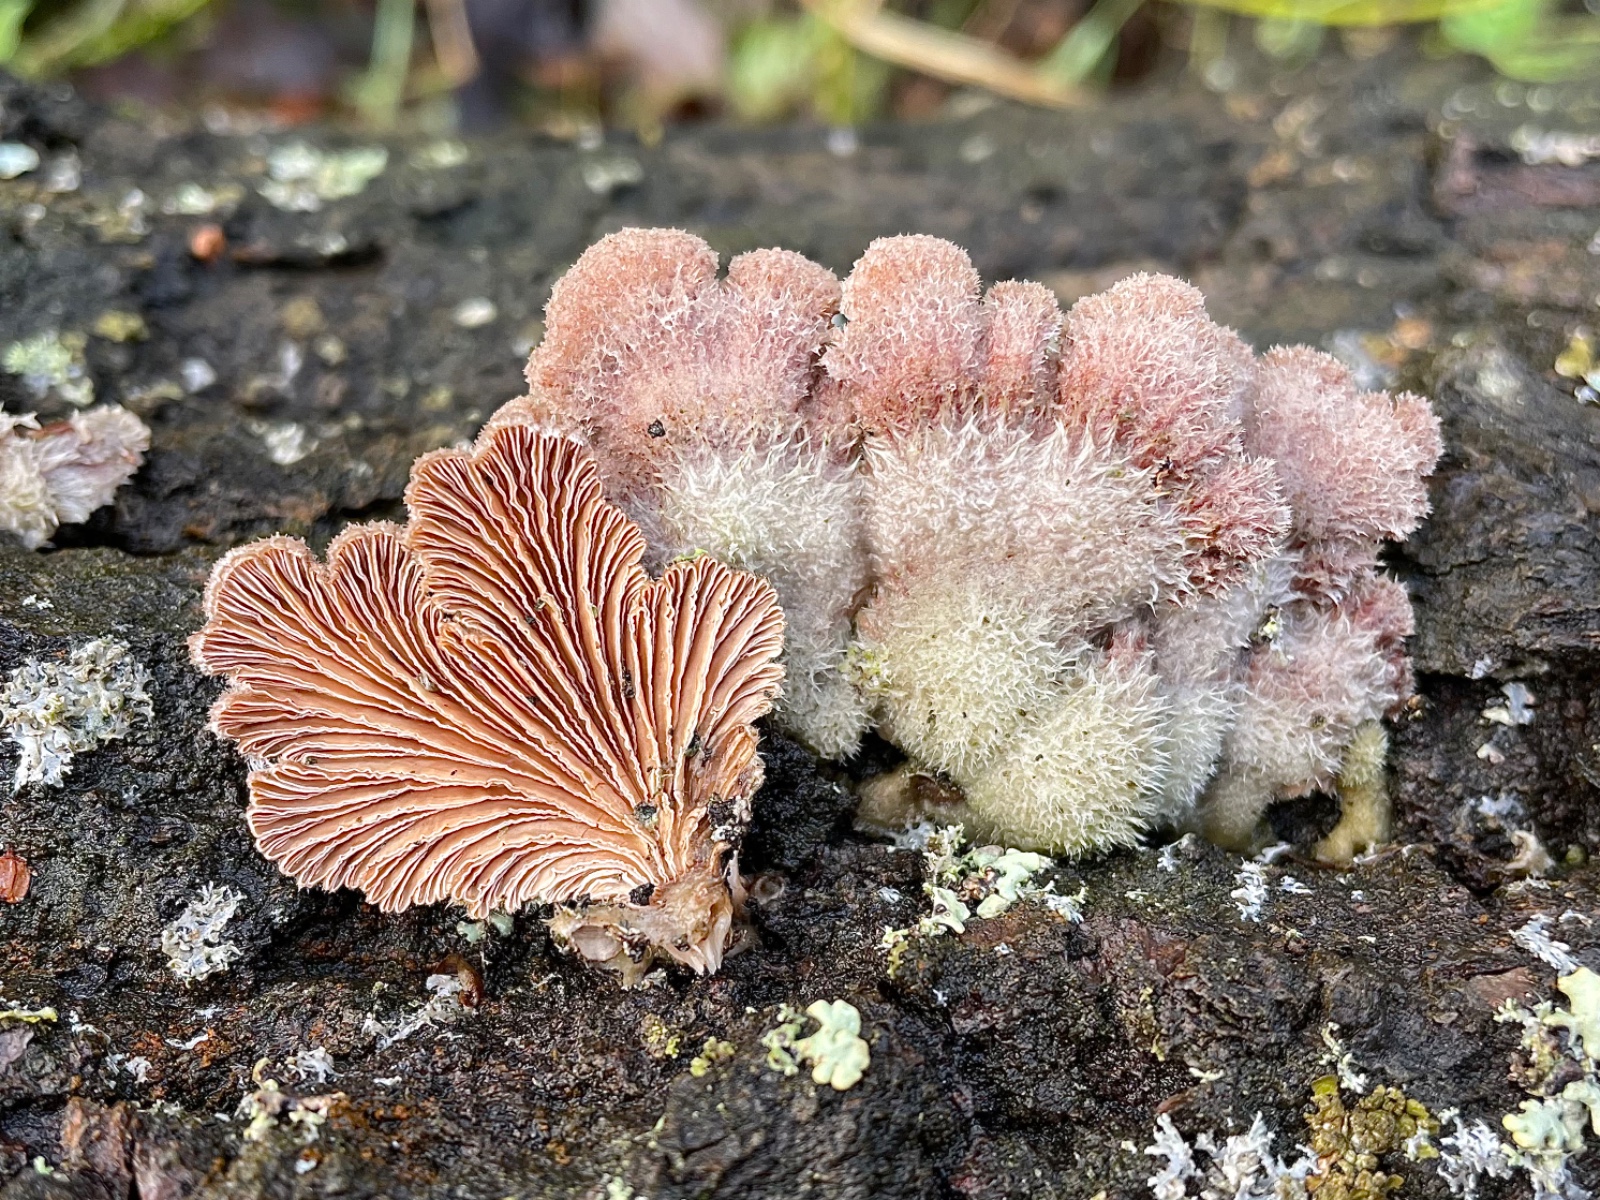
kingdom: Fungi
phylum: Basidiomycota
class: Agaricomycetes
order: Agaricales
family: Schizophyllaceae
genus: Schizophyllum
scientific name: Schizophyllum commune
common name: kløvblad
